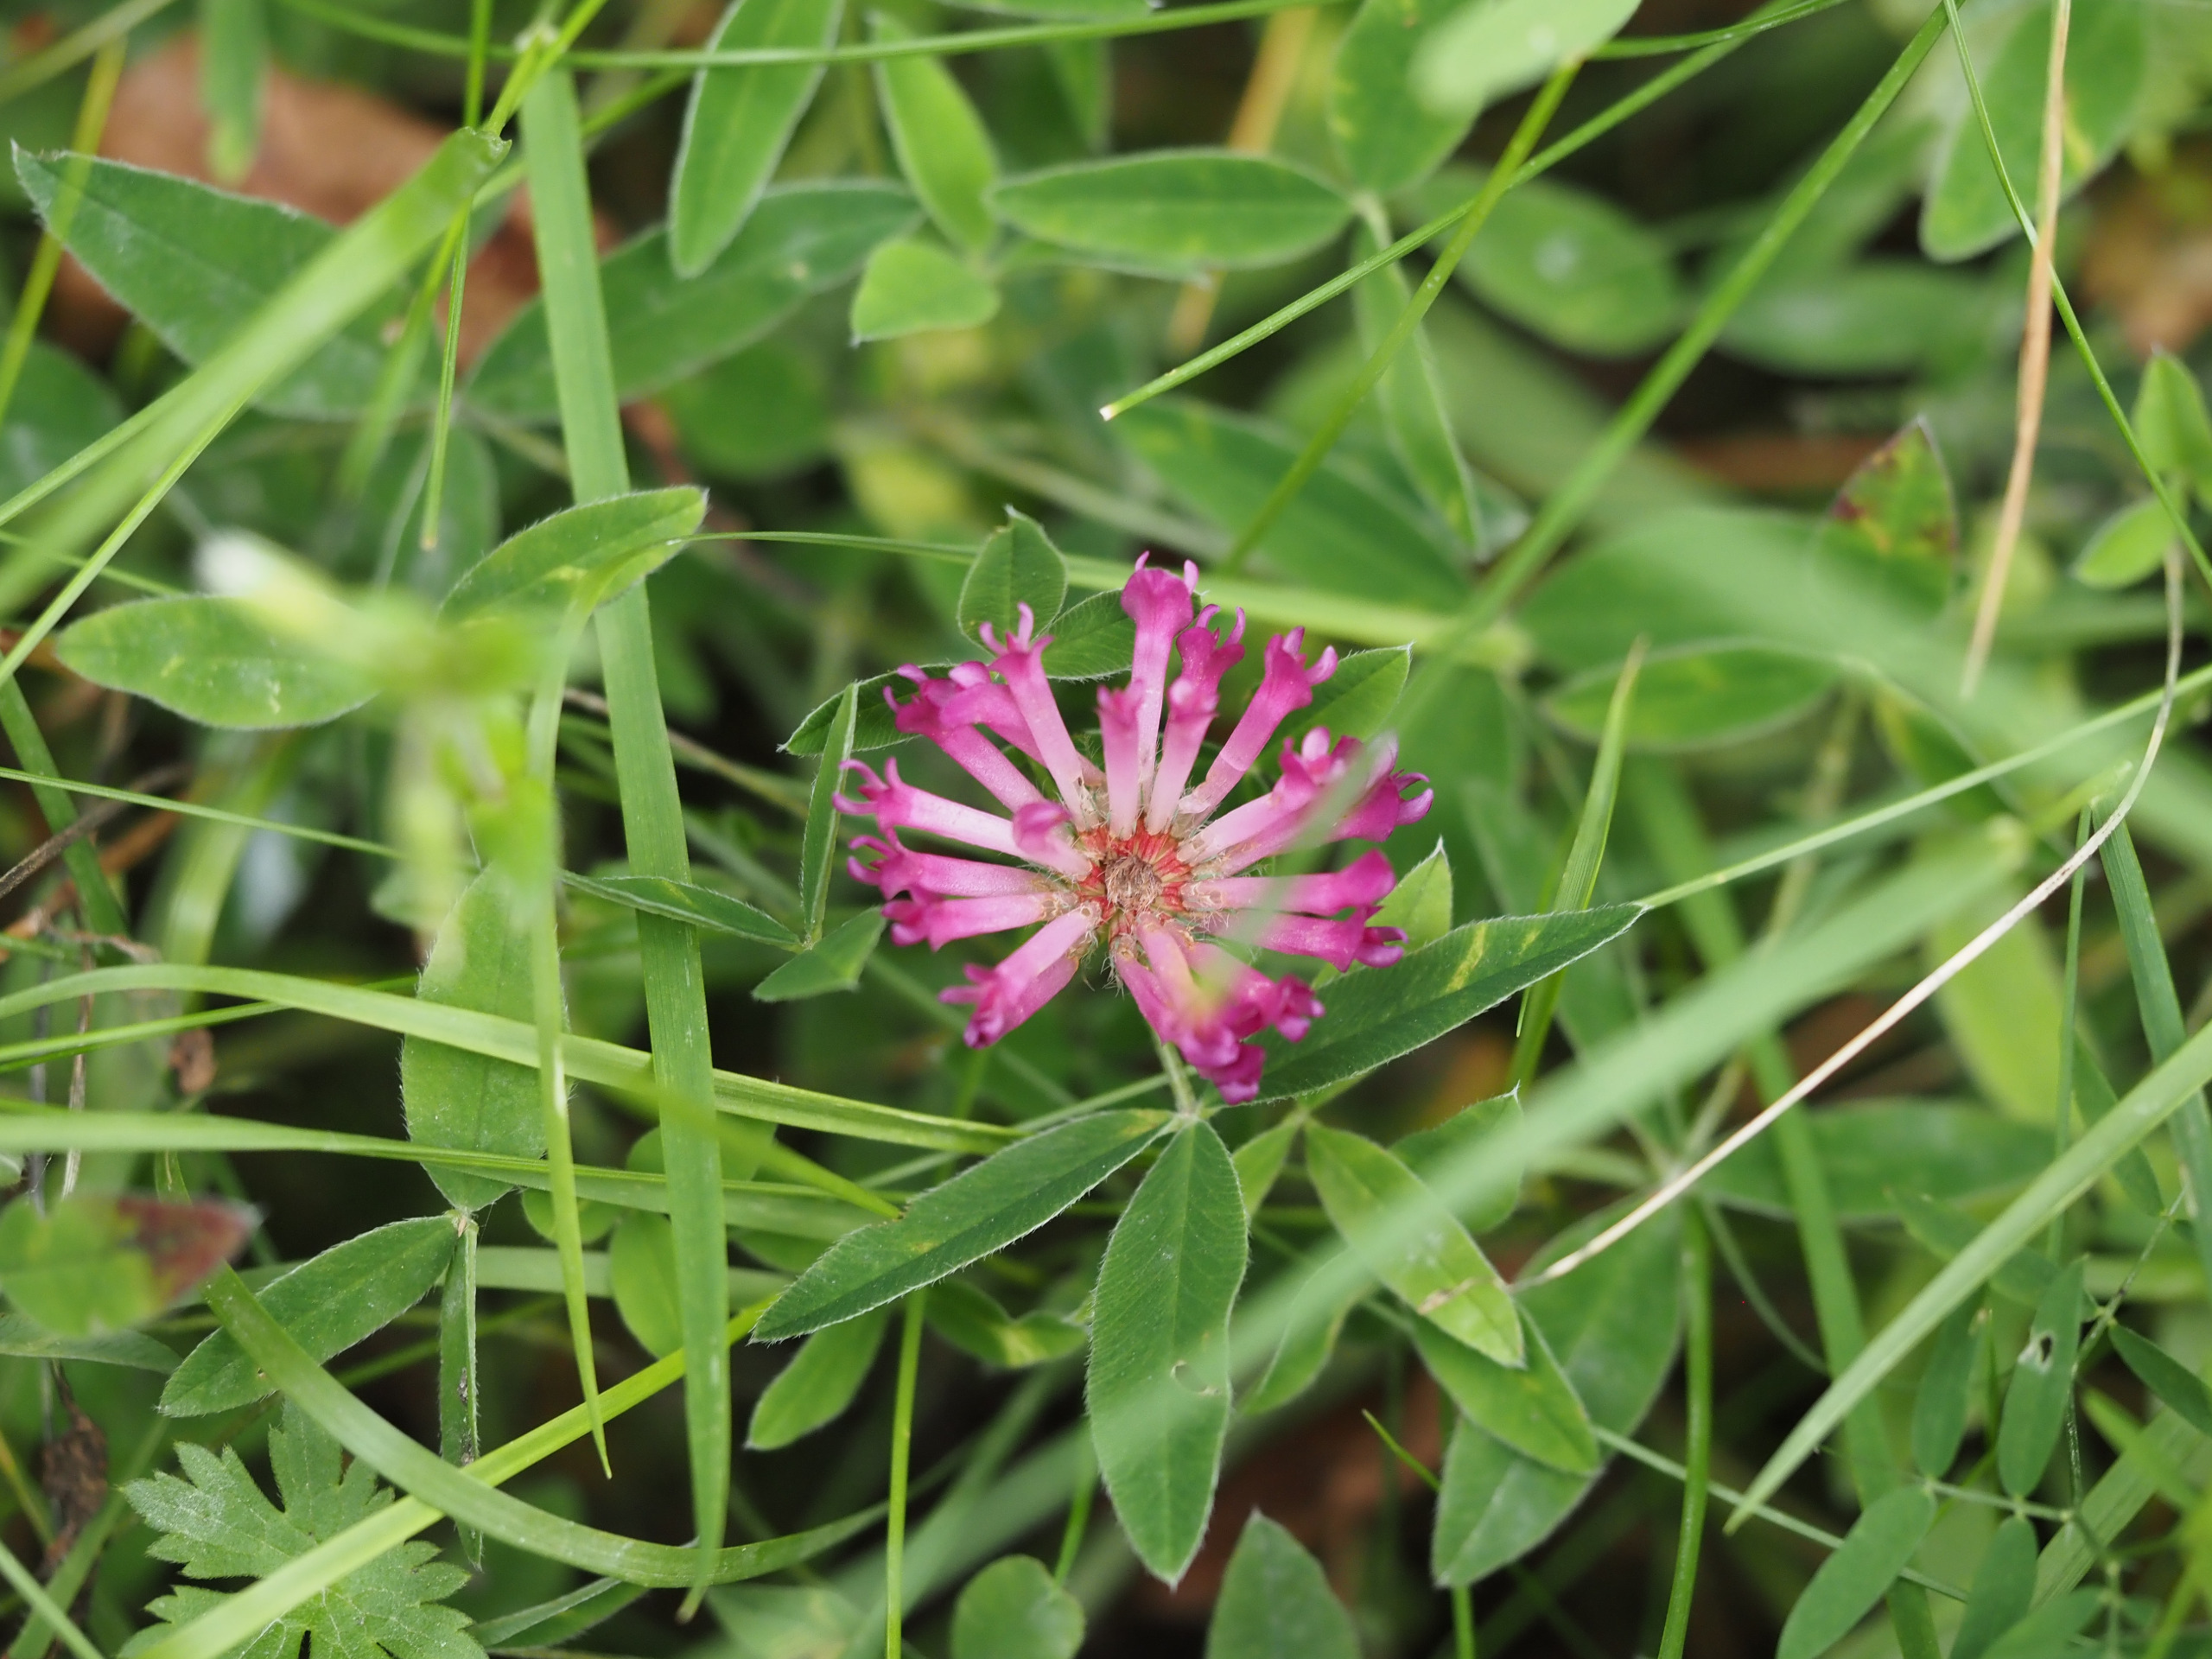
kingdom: Plantae
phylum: Tracheophyta
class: Magnoliopsida
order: Fabales
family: Fabaceae
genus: Trifolium
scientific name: Trifolium medium
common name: Bugtet kløver
